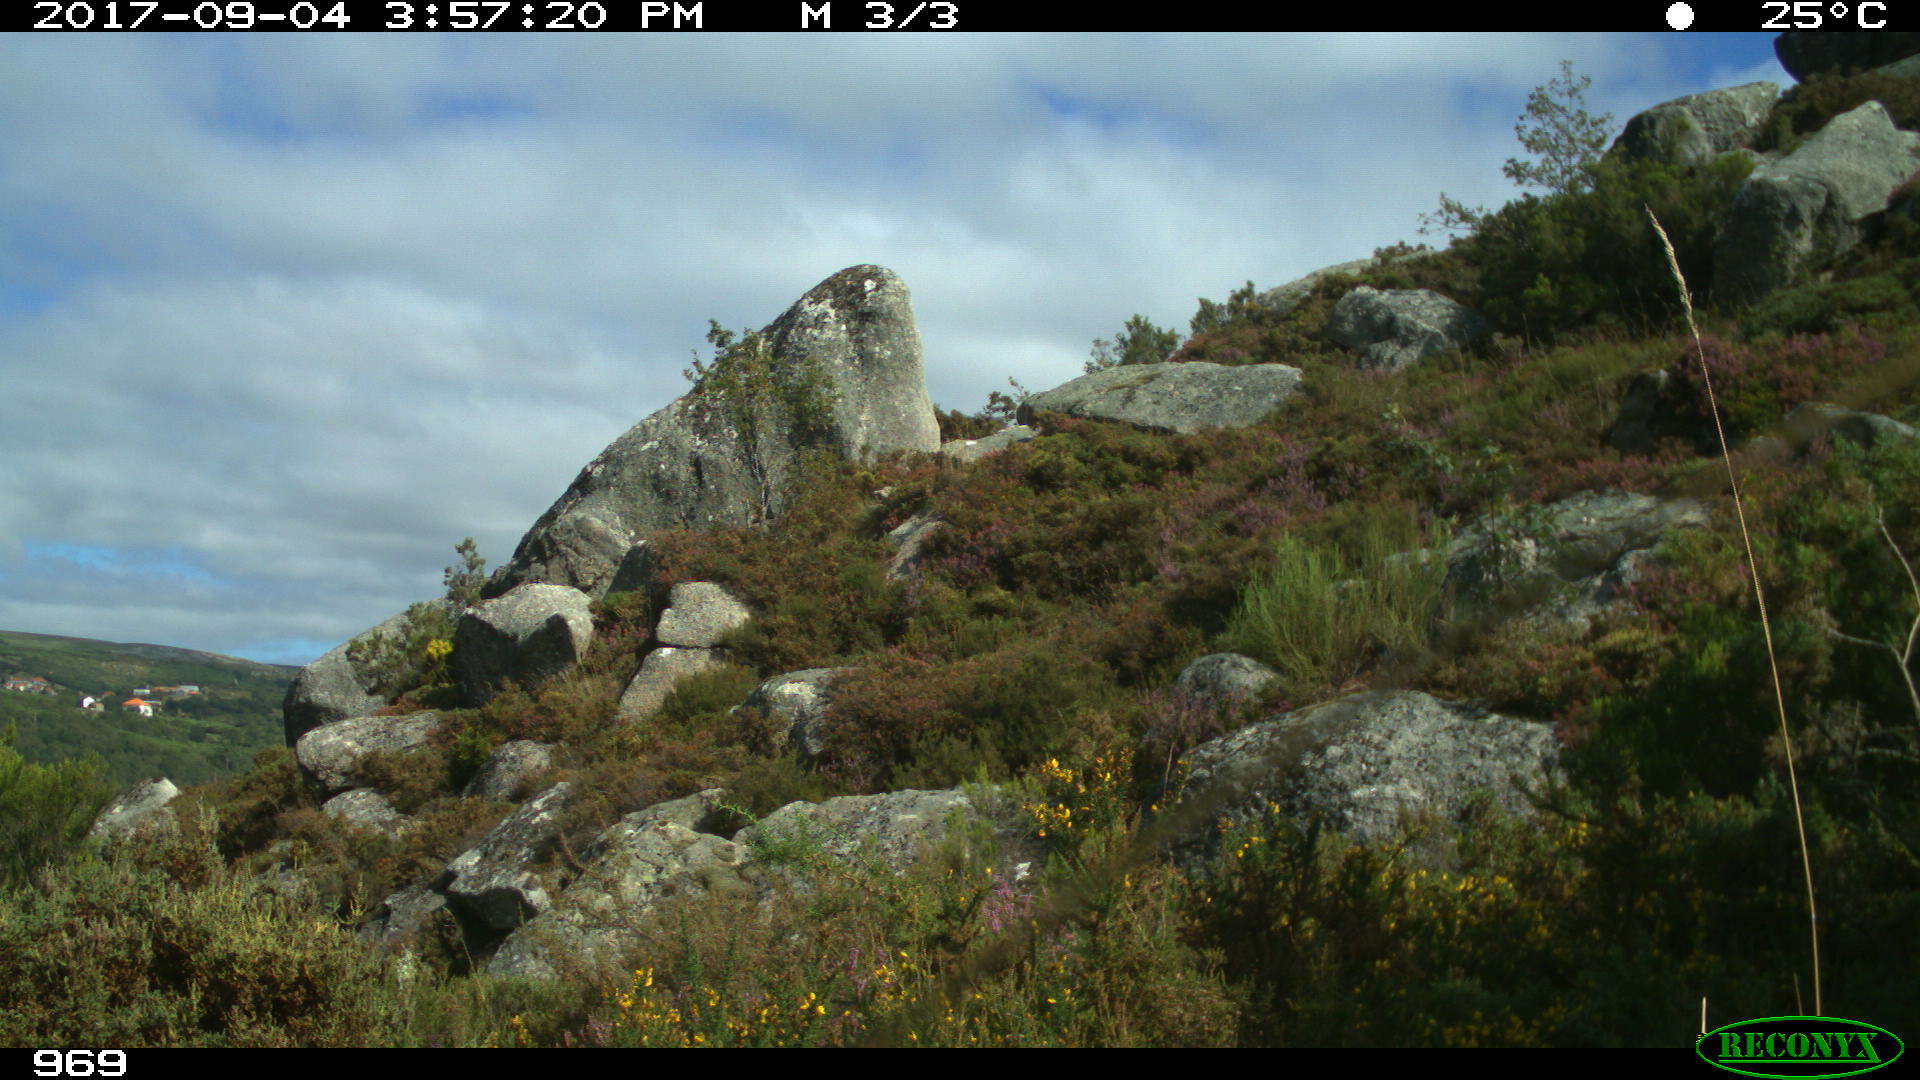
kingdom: Animalia
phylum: Chordata
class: Mammalia
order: Artiodactyla
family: Bovidae
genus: Bos
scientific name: Bos taurus
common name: Domesticated cattle
